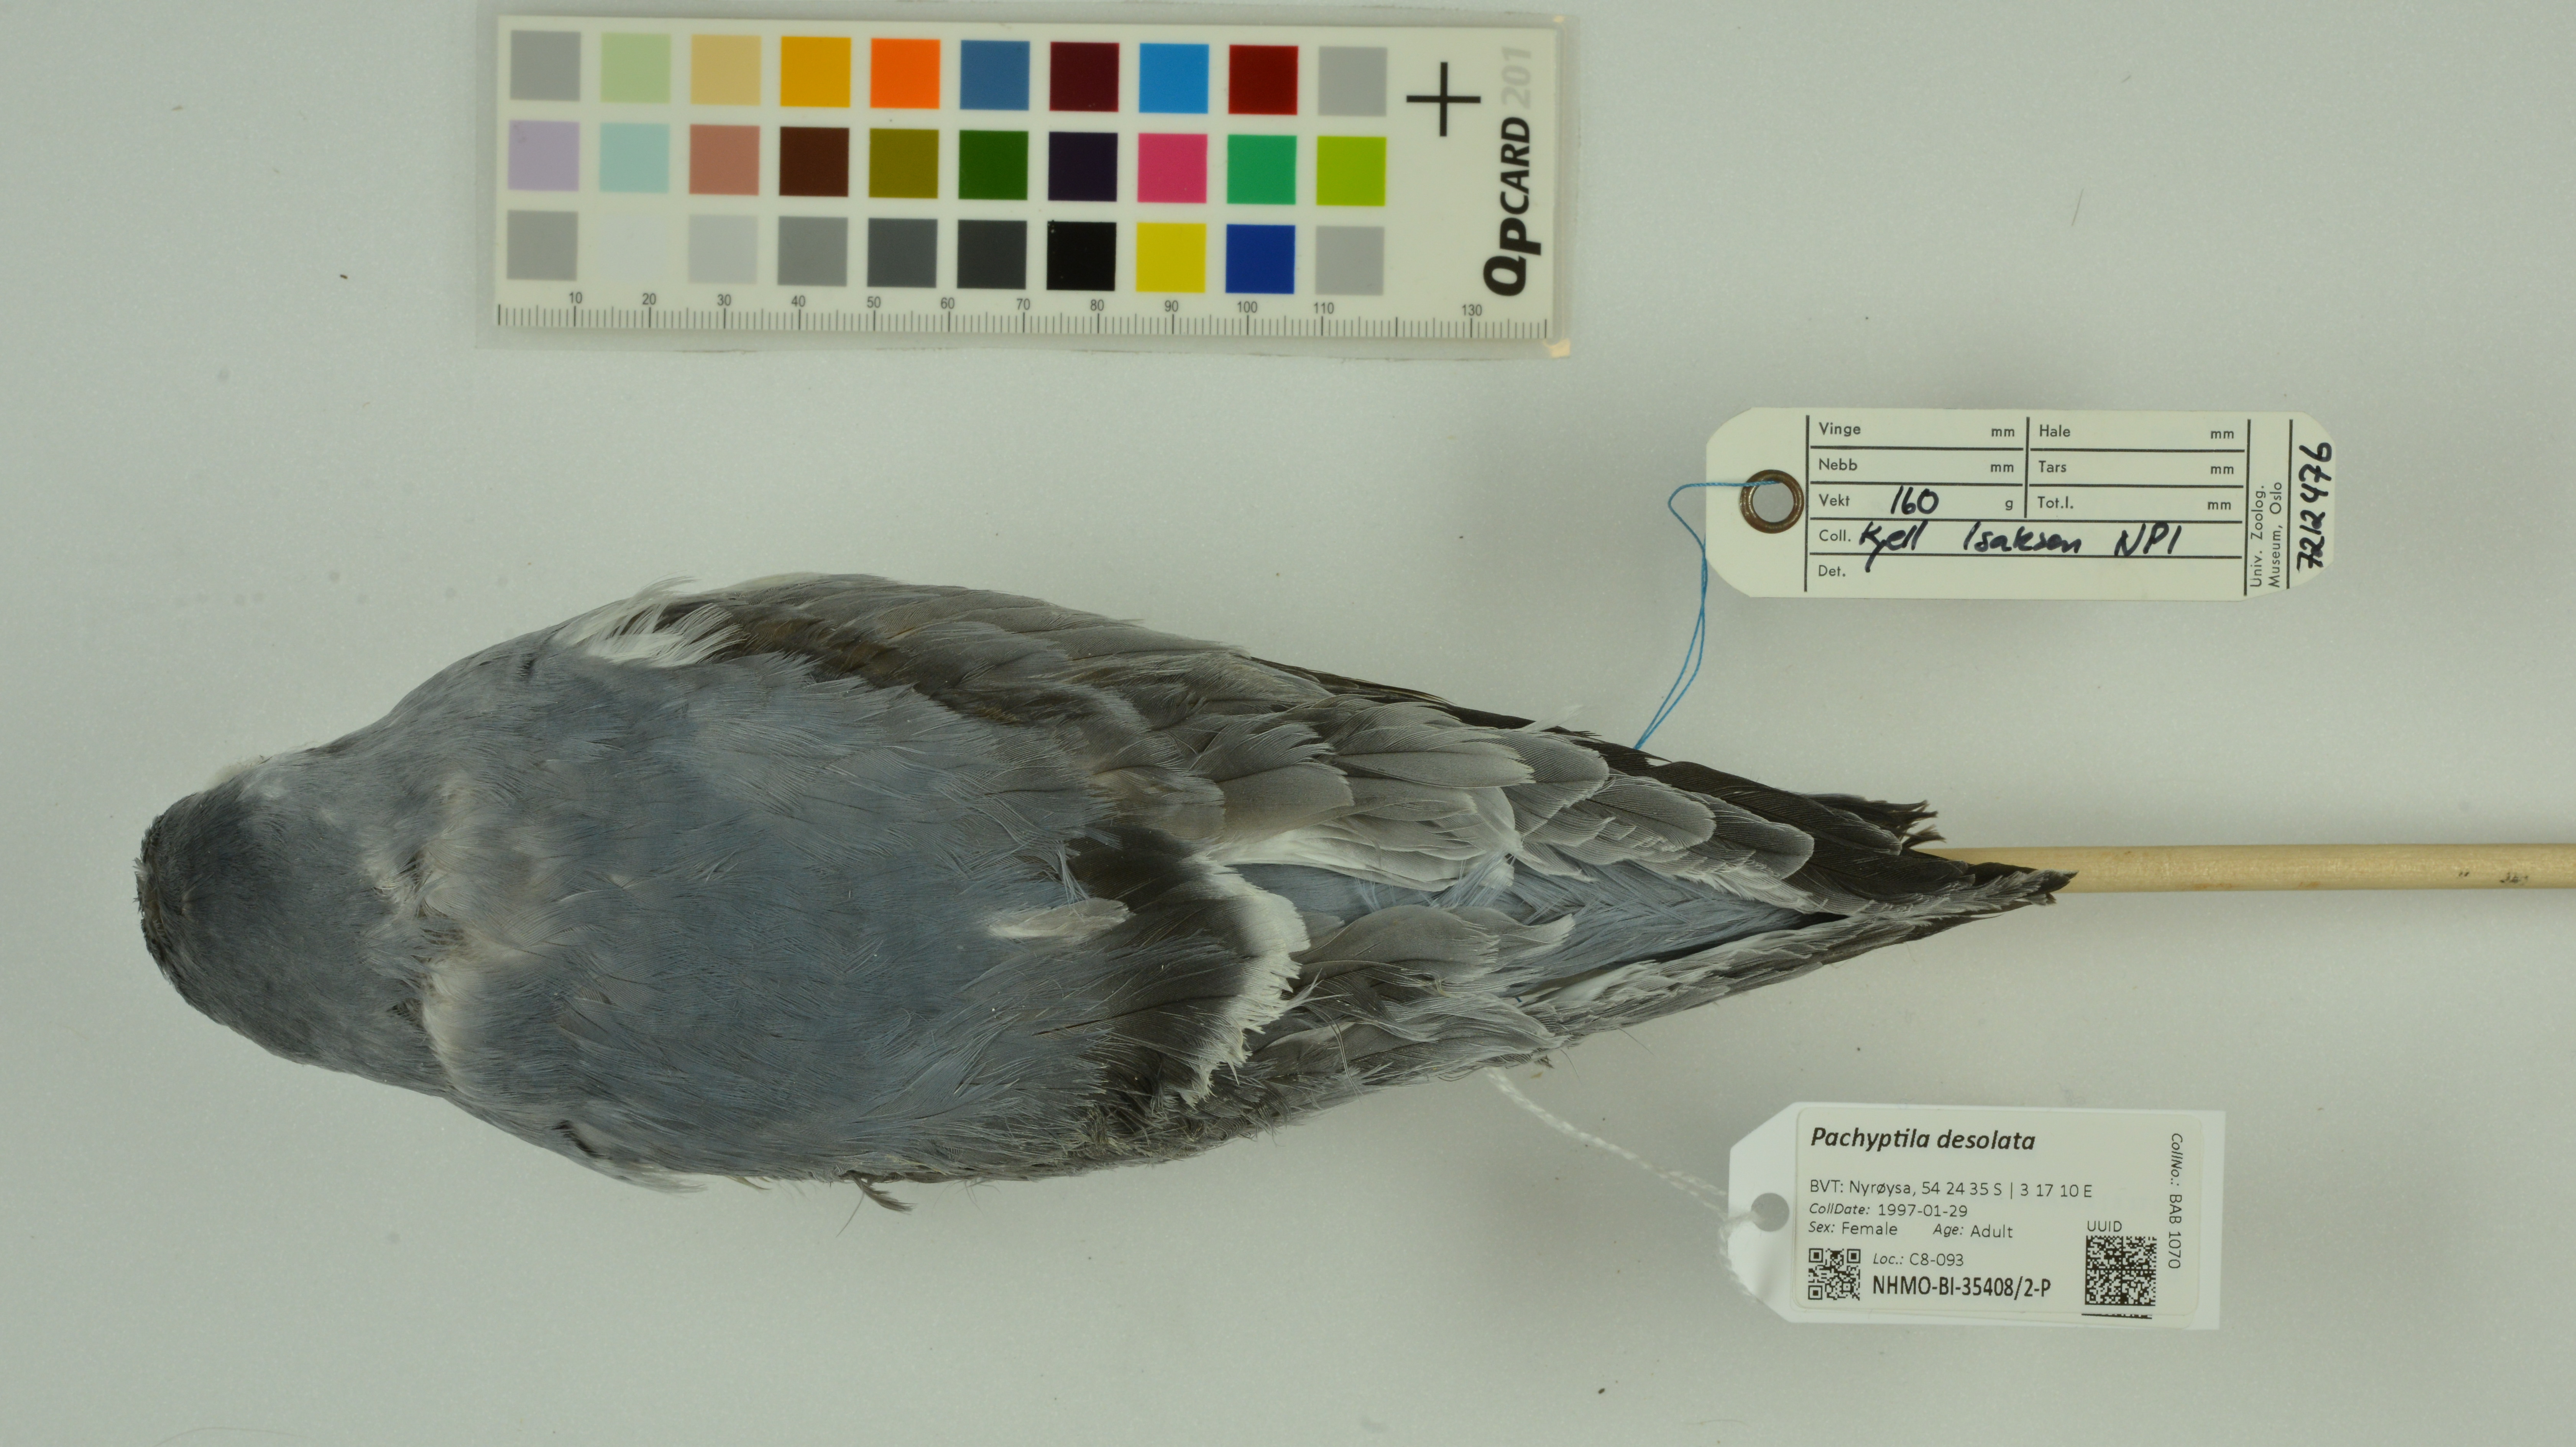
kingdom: Animalia
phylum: Chordata
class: Aves
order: Procellariiformes
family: Procellariidae
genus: Pachyptila
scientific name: Pachyptila desolata
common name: Antarctic prion
